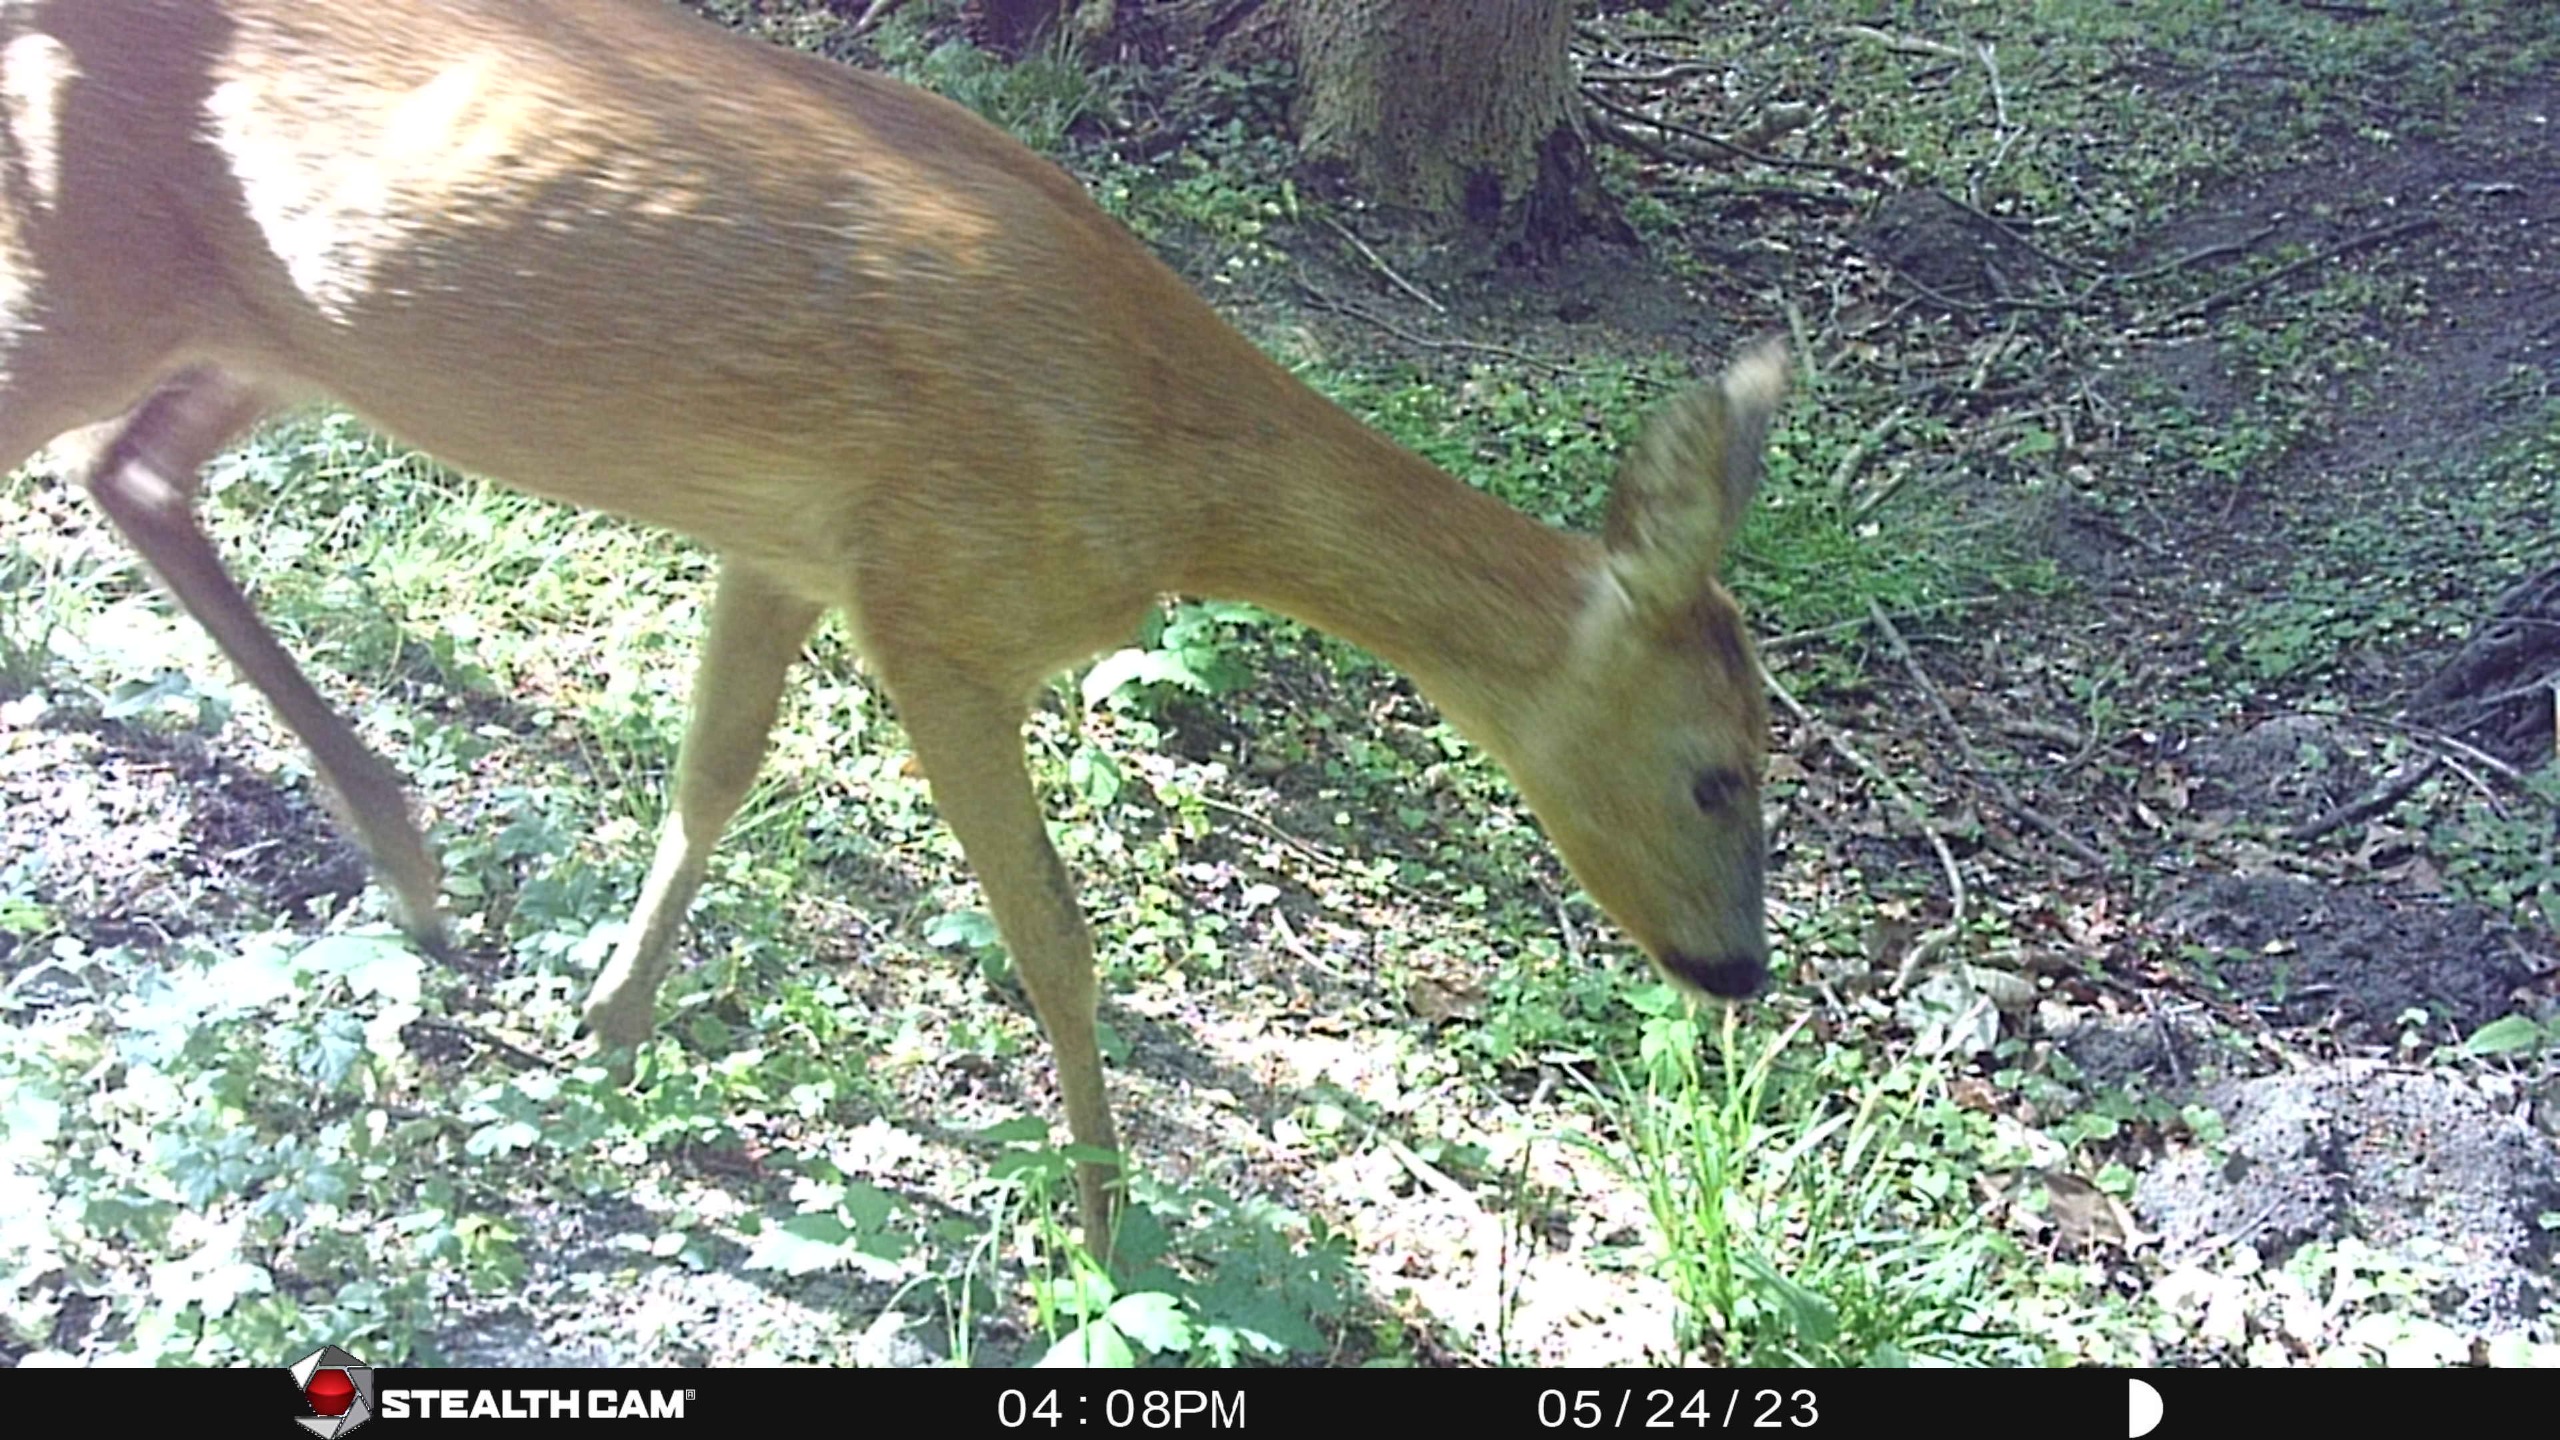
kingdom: Animalia
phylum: Chordata
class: Mammalia
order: Artiodactyla
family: Cervidae
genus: Capreolus
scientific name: Capreolus capreolus
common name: Rådyr
